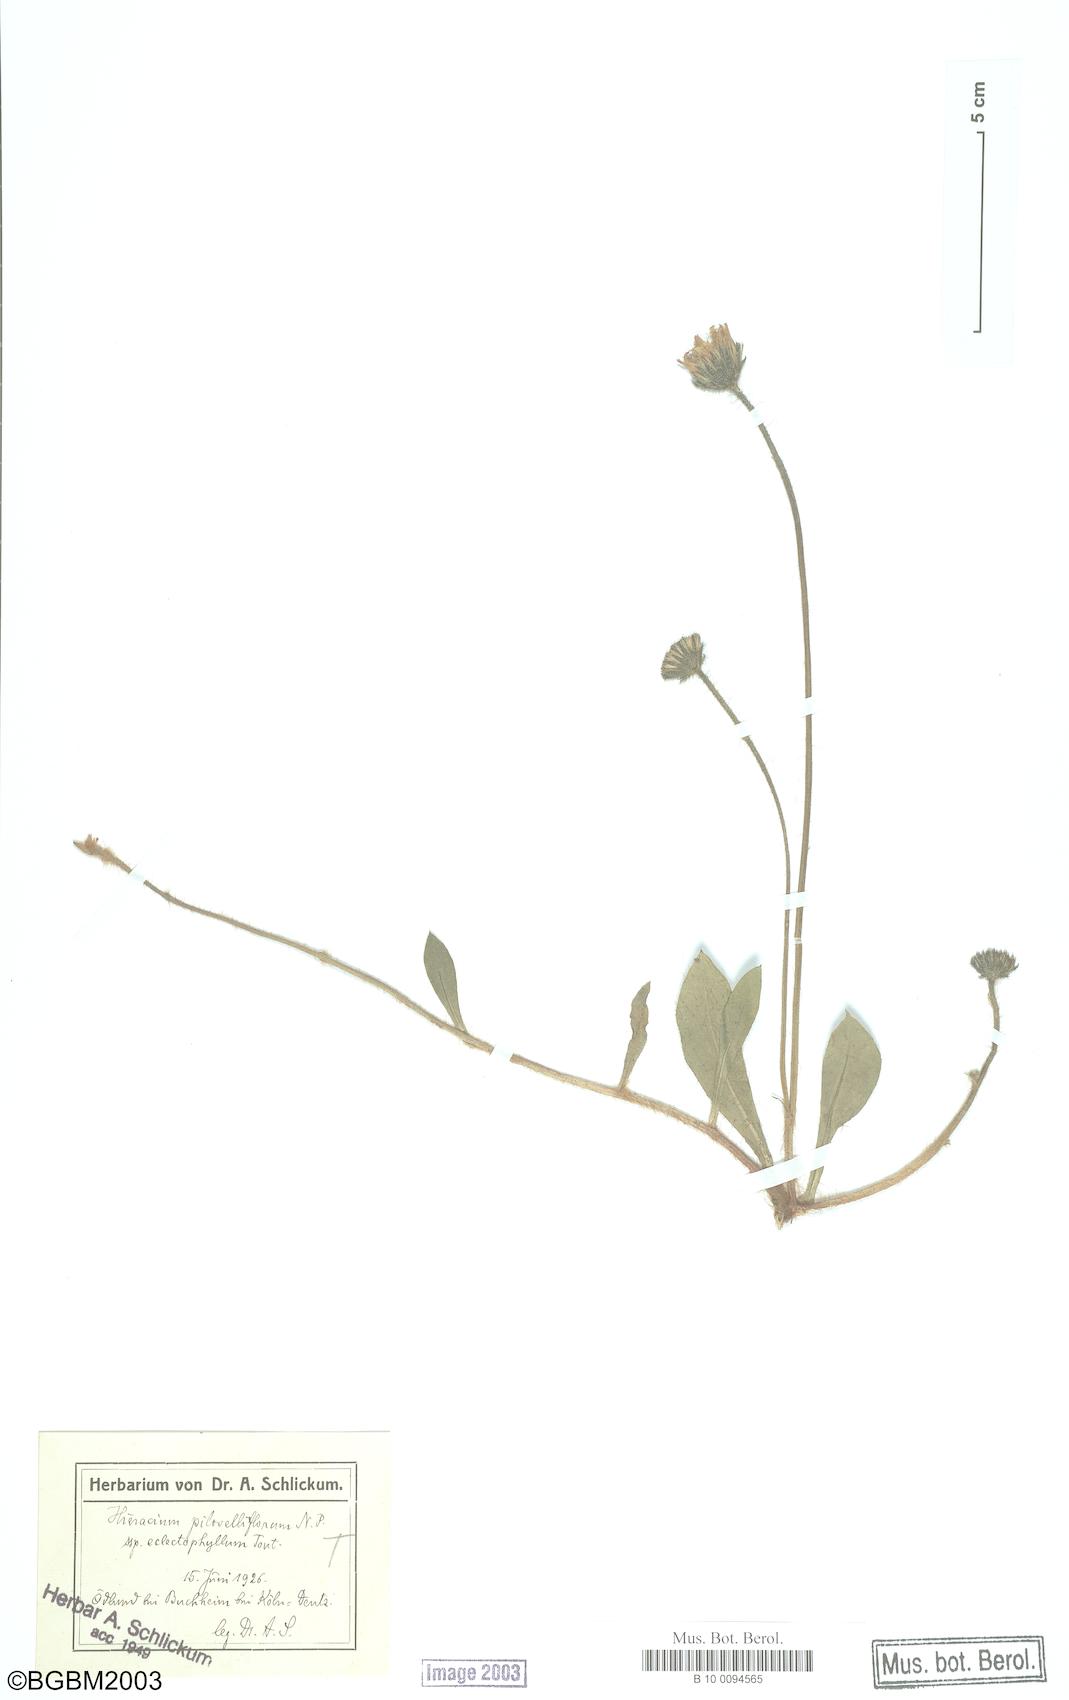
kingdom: Plantae
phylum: Tracheophyta
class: Magnoliopsida
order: Asterales
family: Asteraceae
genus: Pilosella
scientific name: Pilosella piloselliflora
